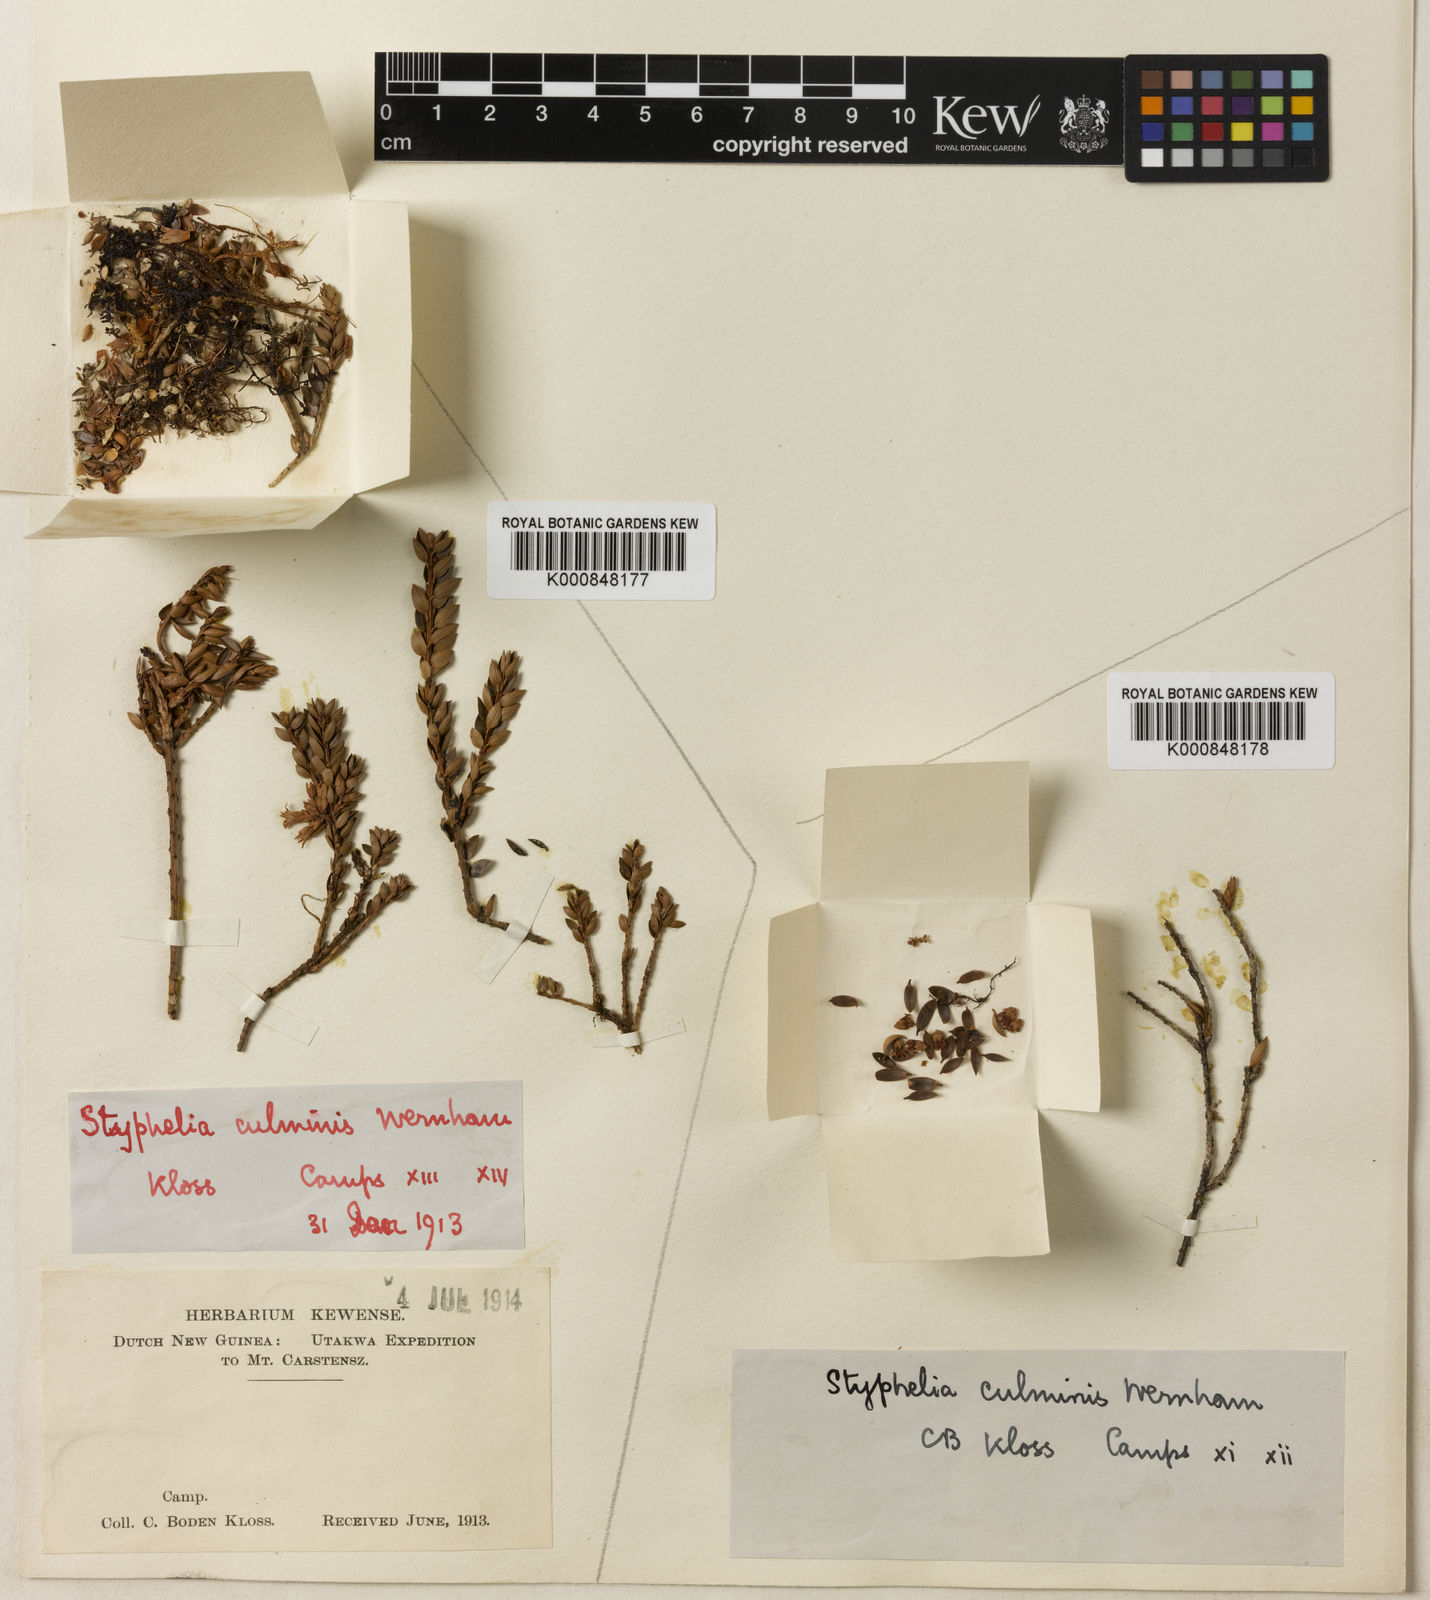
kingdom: Plantae
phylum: Tracheophyta
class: Magnoliopsida
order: Ericales
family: Ericaceae
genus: Trochocarpa
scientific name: Trochocarpa
